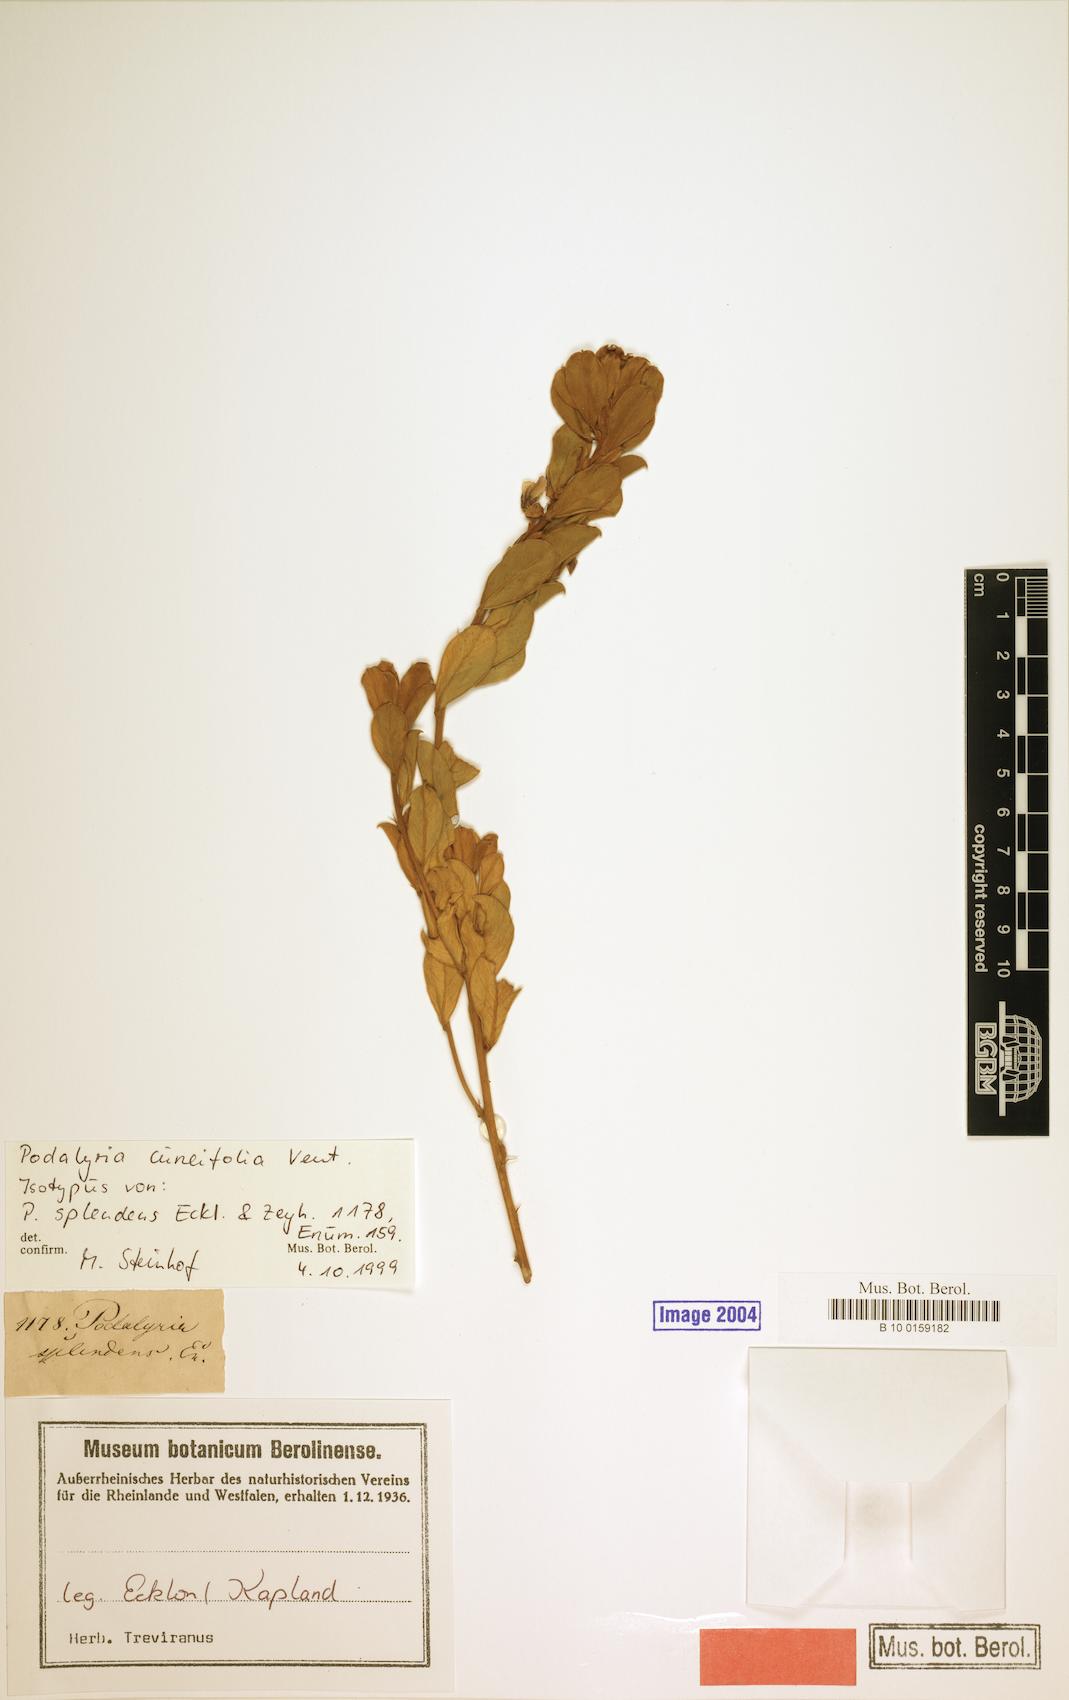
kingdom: Plantae
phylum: Tracheophyta
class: Magnoliopsida
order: Fabales
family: Fabaceae
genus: Podalyria
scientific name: Podalyria myrtillifolia
